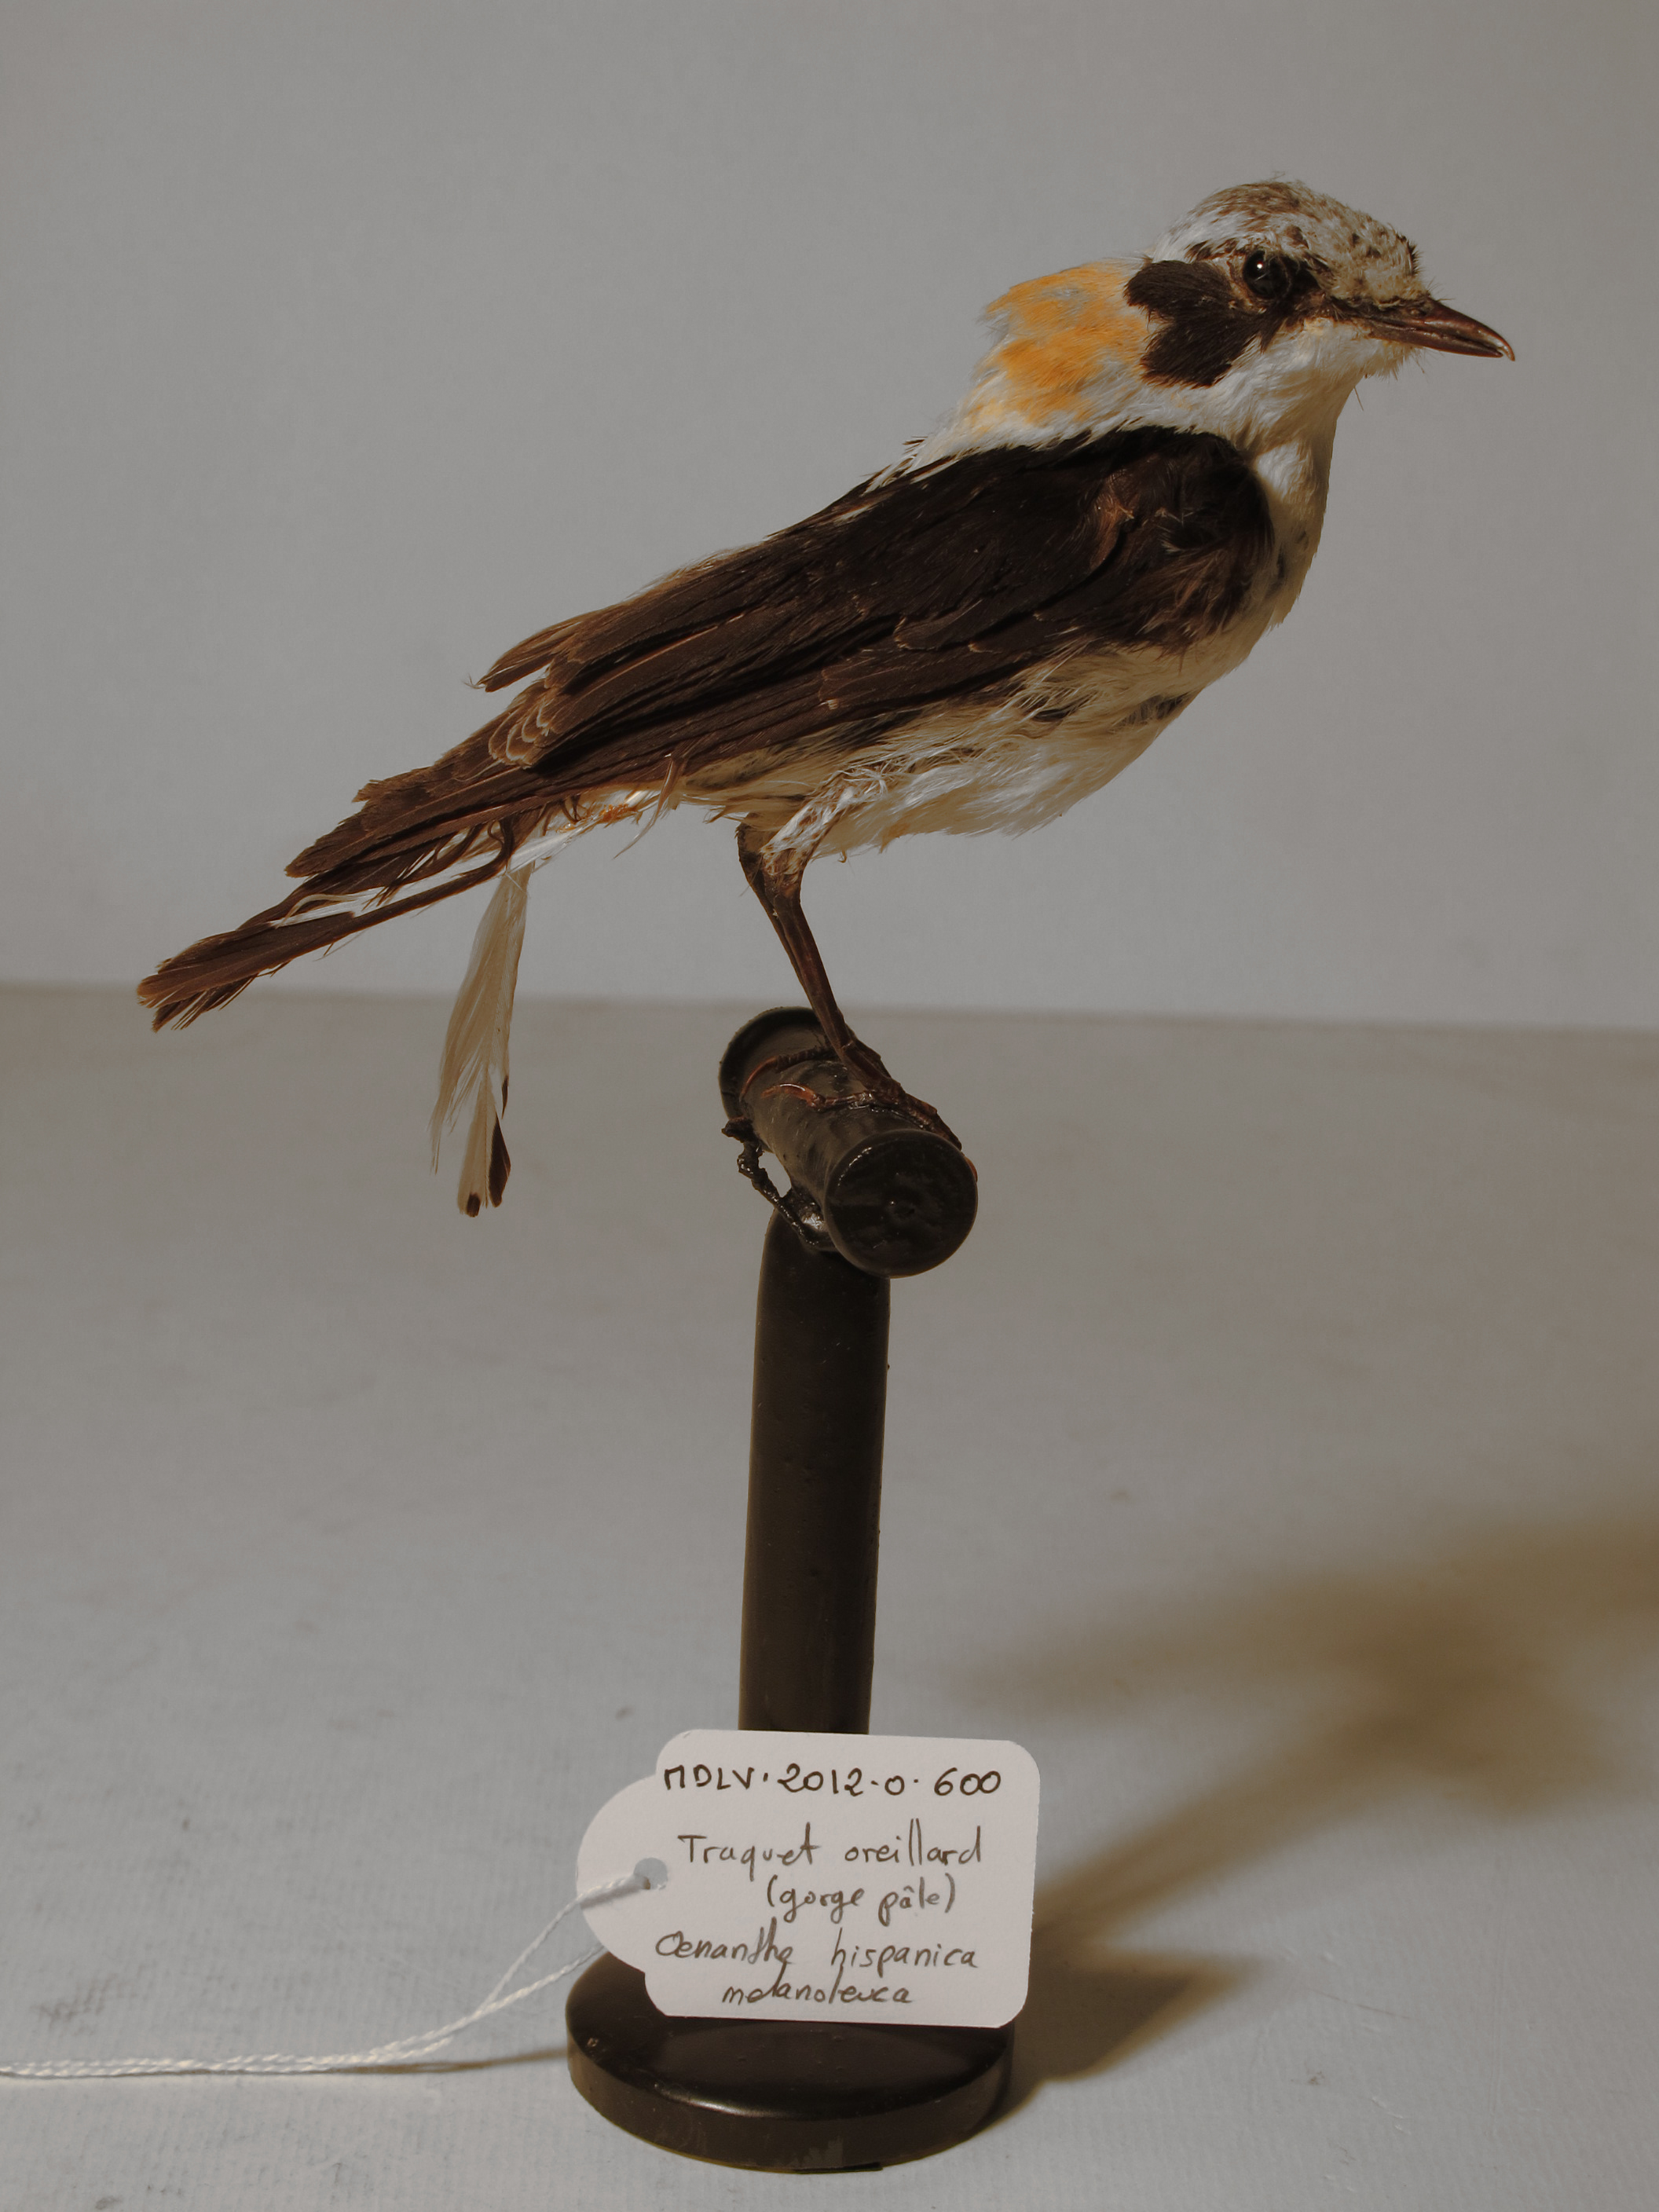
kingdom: Animalia
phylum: Chordata
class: Aves
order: Passeriformes
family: Muscicapidae
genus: Oenanthe
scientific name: Oenanthe hispanica
